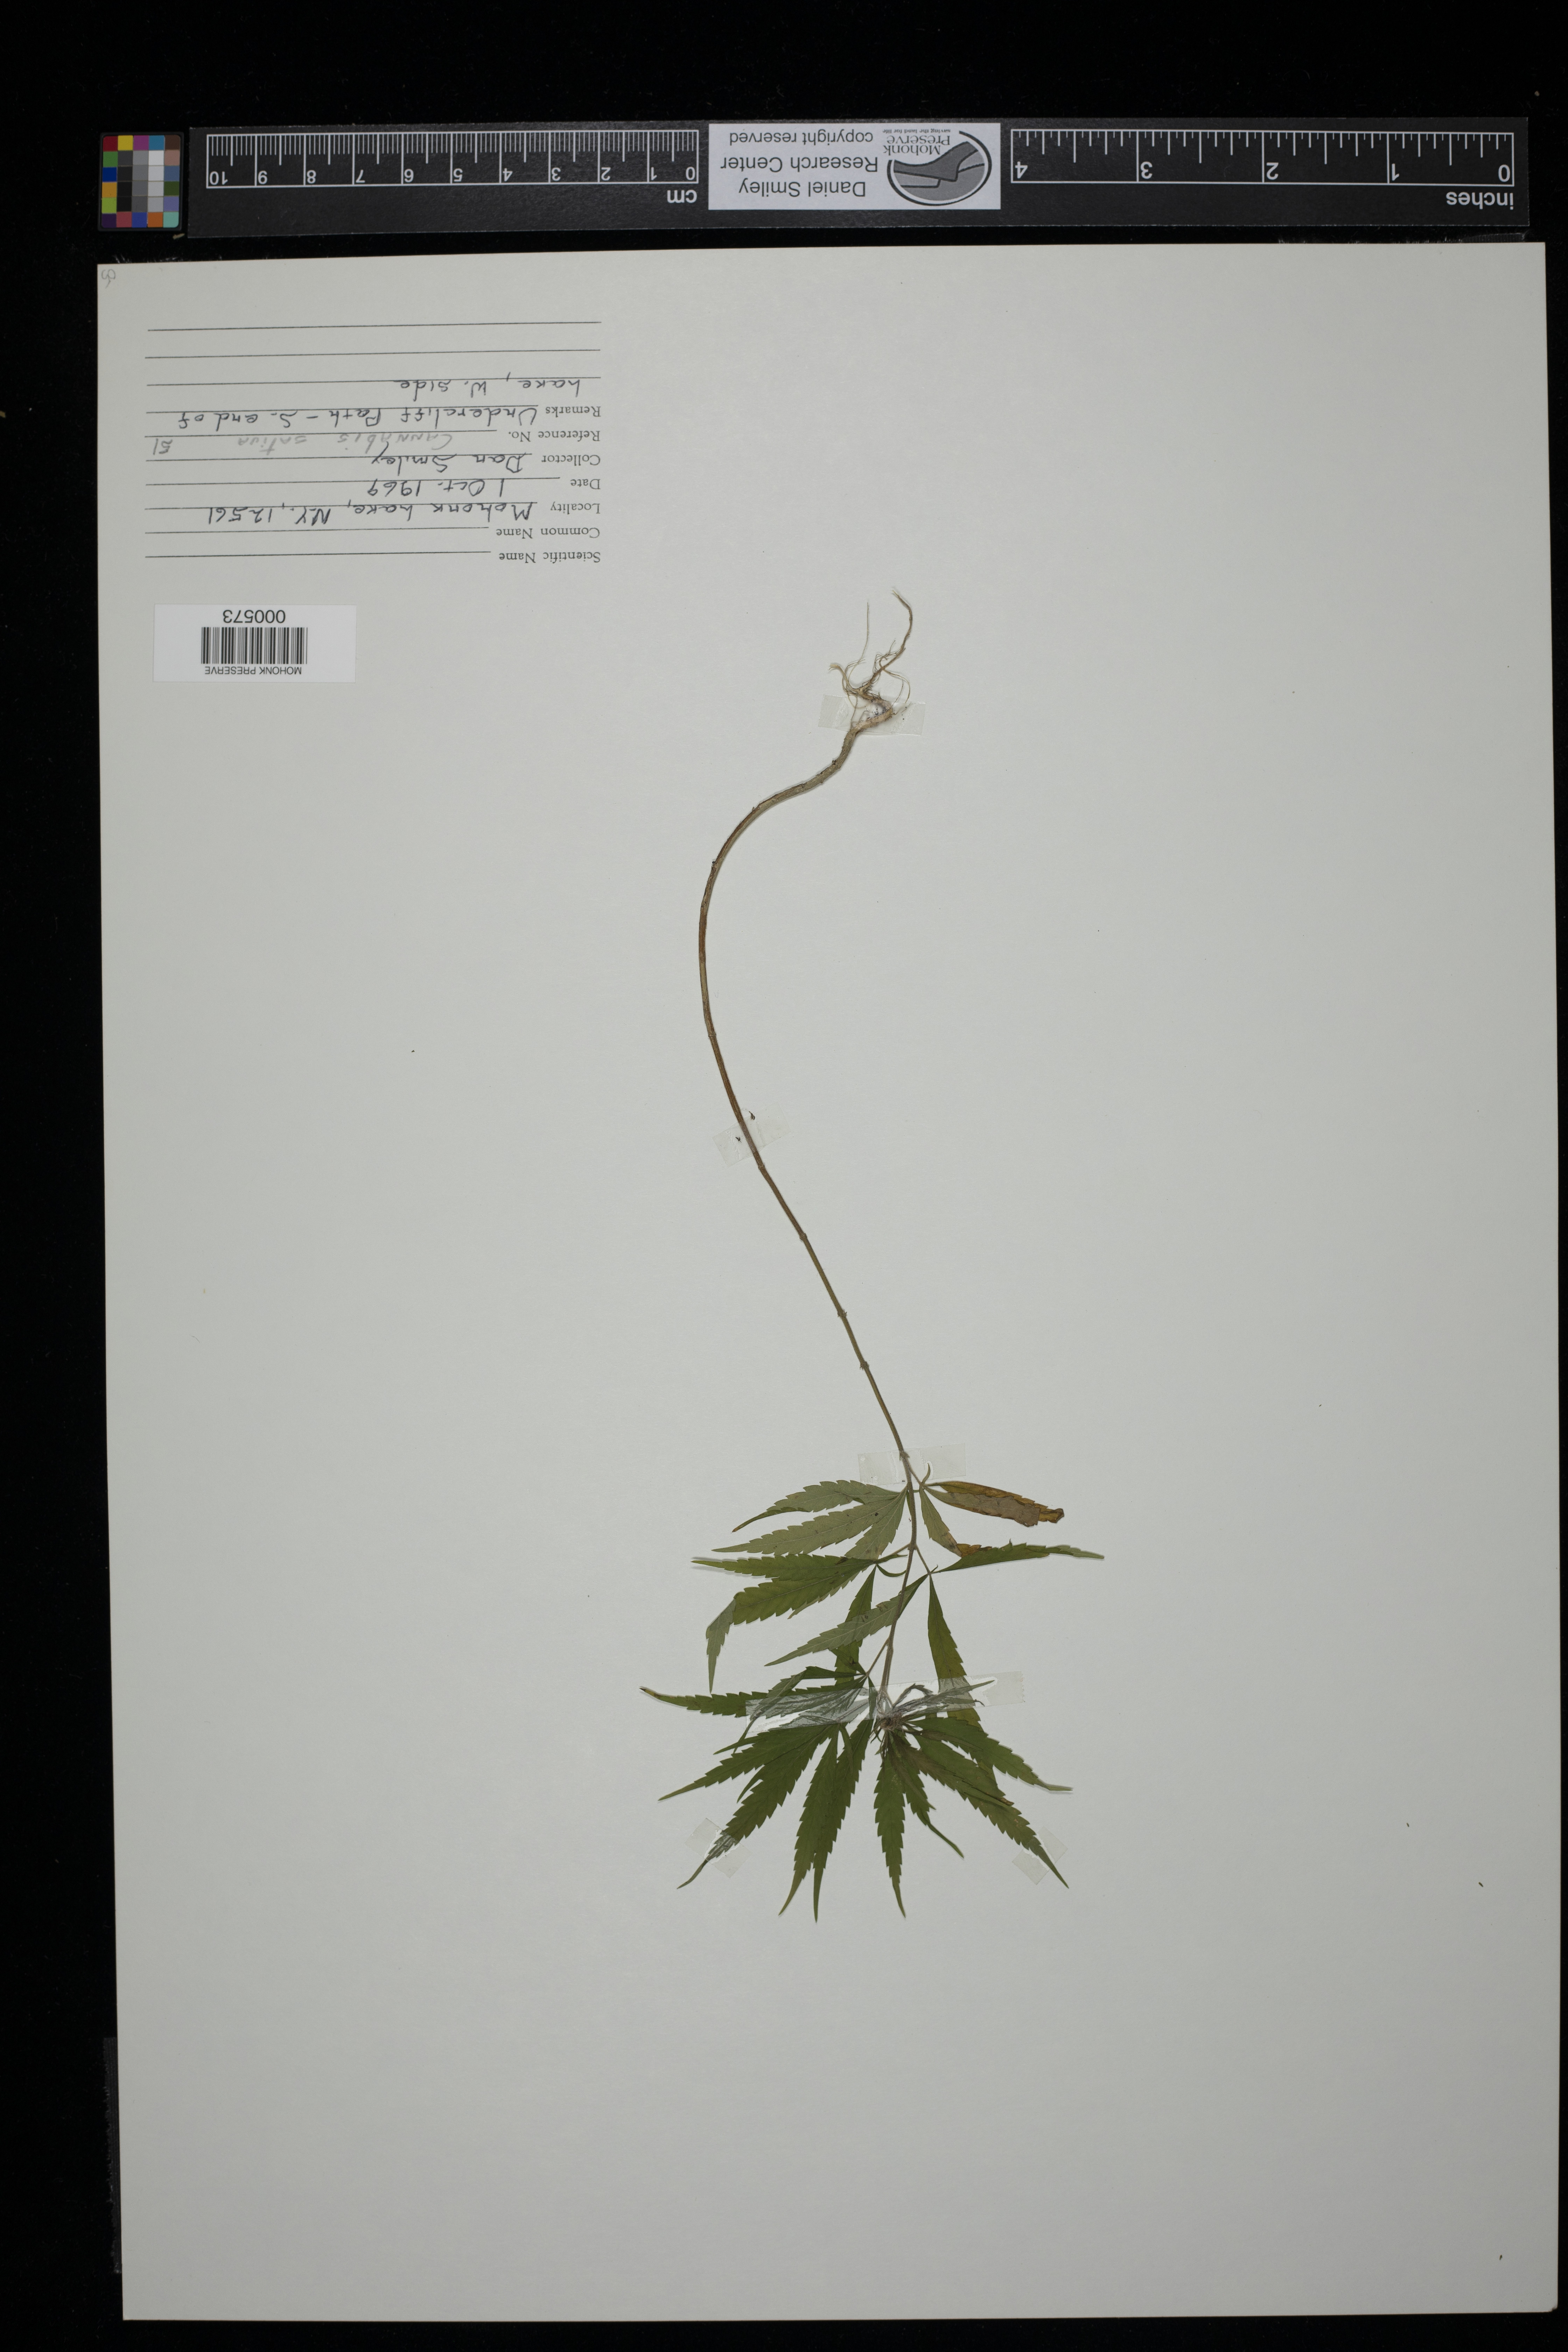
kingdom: Plantae
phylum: Tracheophyta
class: Magnoliopsida
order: Rosales
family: Cannabaceae
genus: Cannabis
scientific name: Cannabis sativa
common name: Hemp
